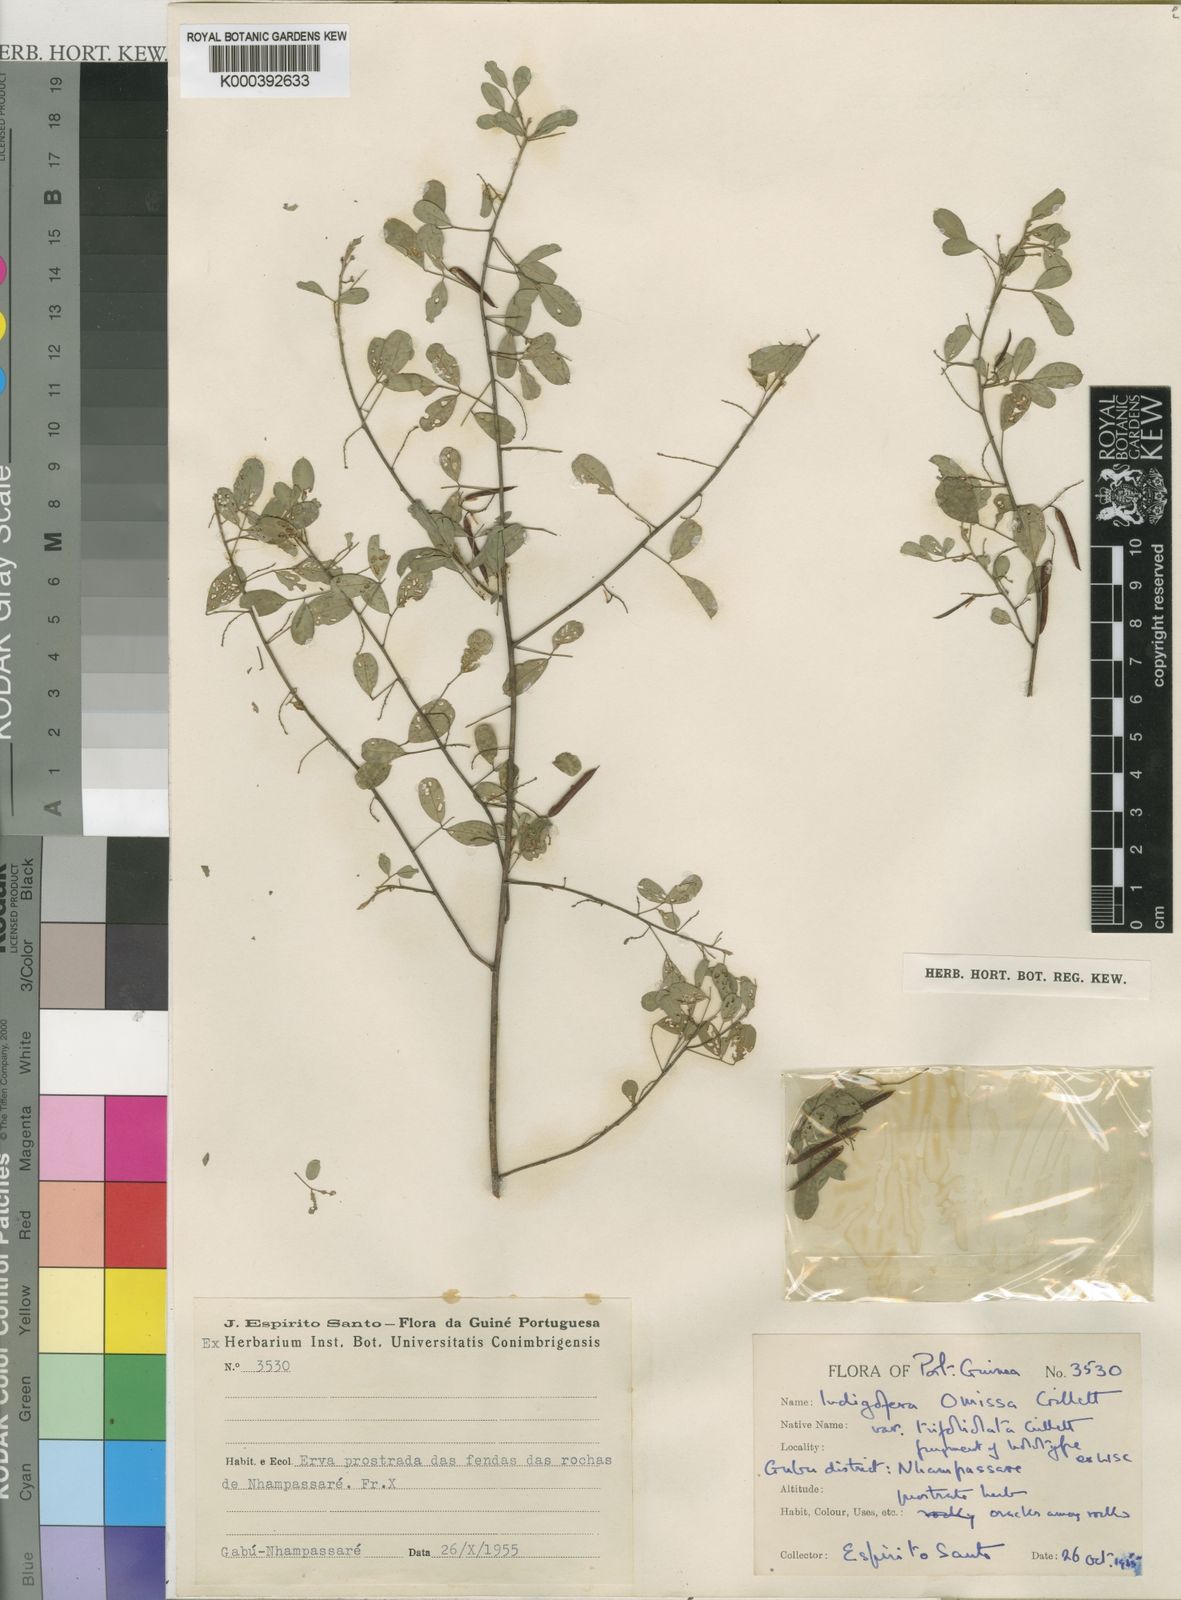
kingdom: Plantae
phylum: Tracheophyta
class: Magnoliopsida
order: Fabales
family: Fabaceae
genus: Indigofera
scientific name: Indigofera omissa
